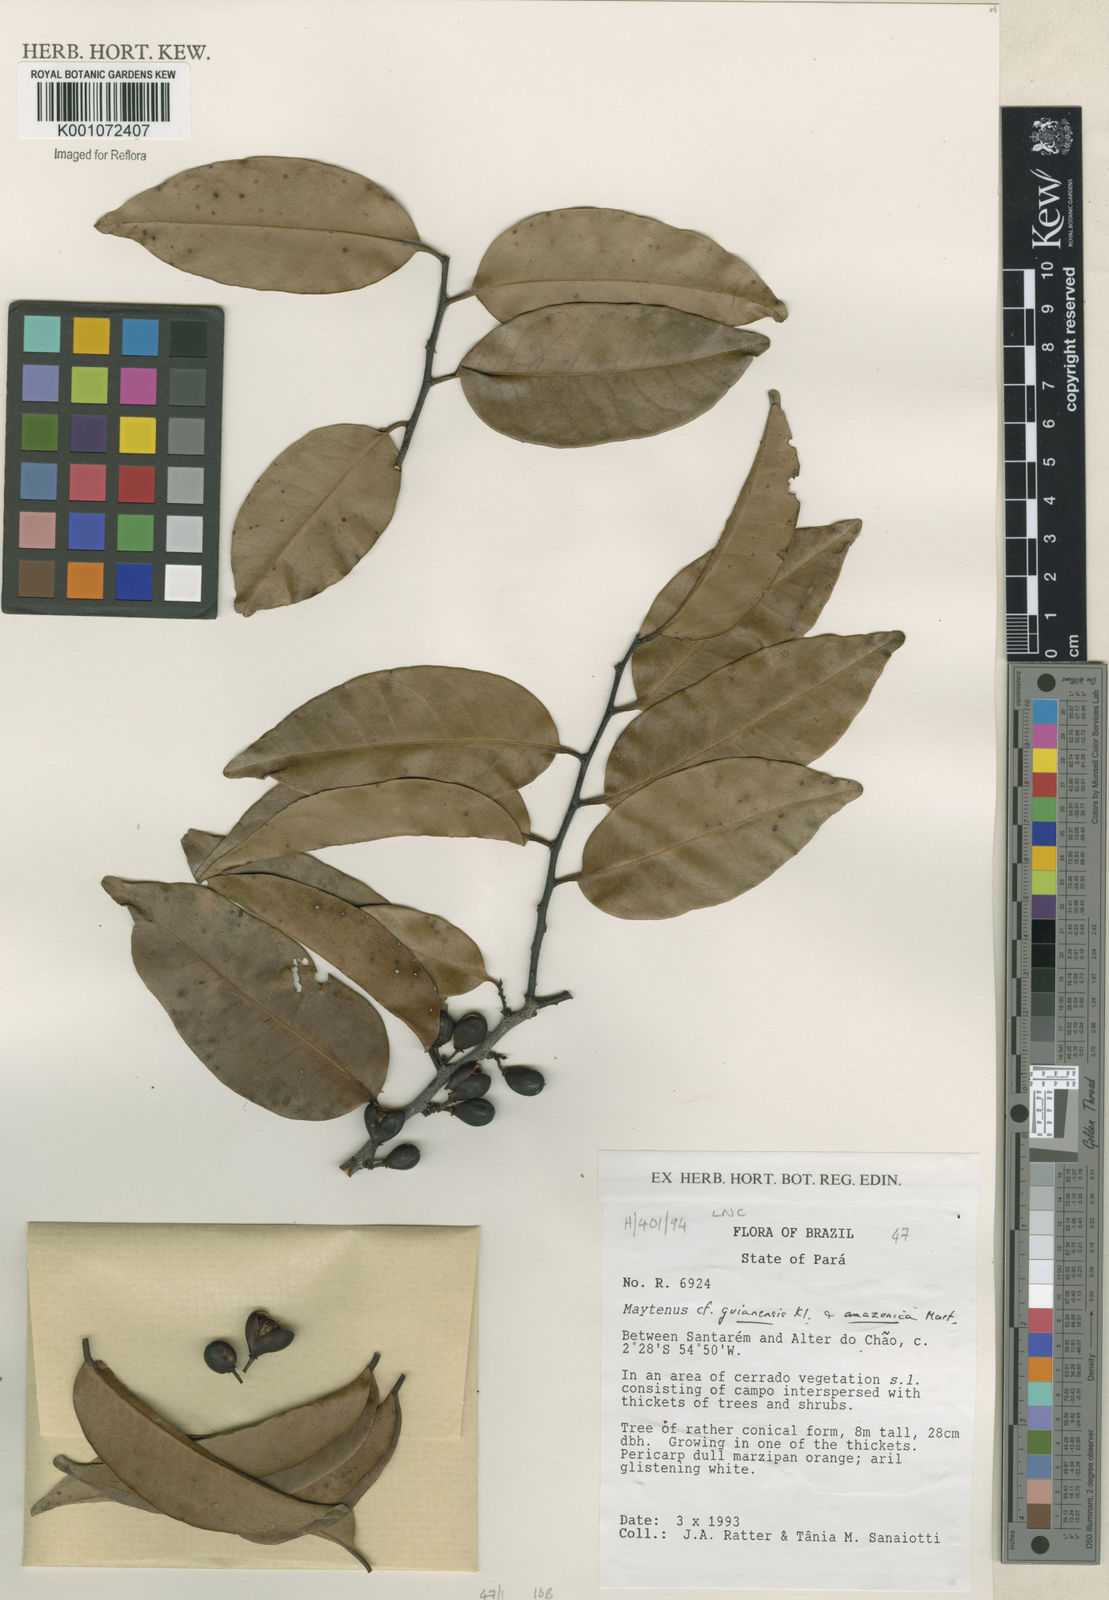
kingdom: Plantae
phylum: Tracheophyta
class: Magnoliopsida
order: Celastrales
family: Celastraceae
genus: Maytenus
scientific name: Maytenus
